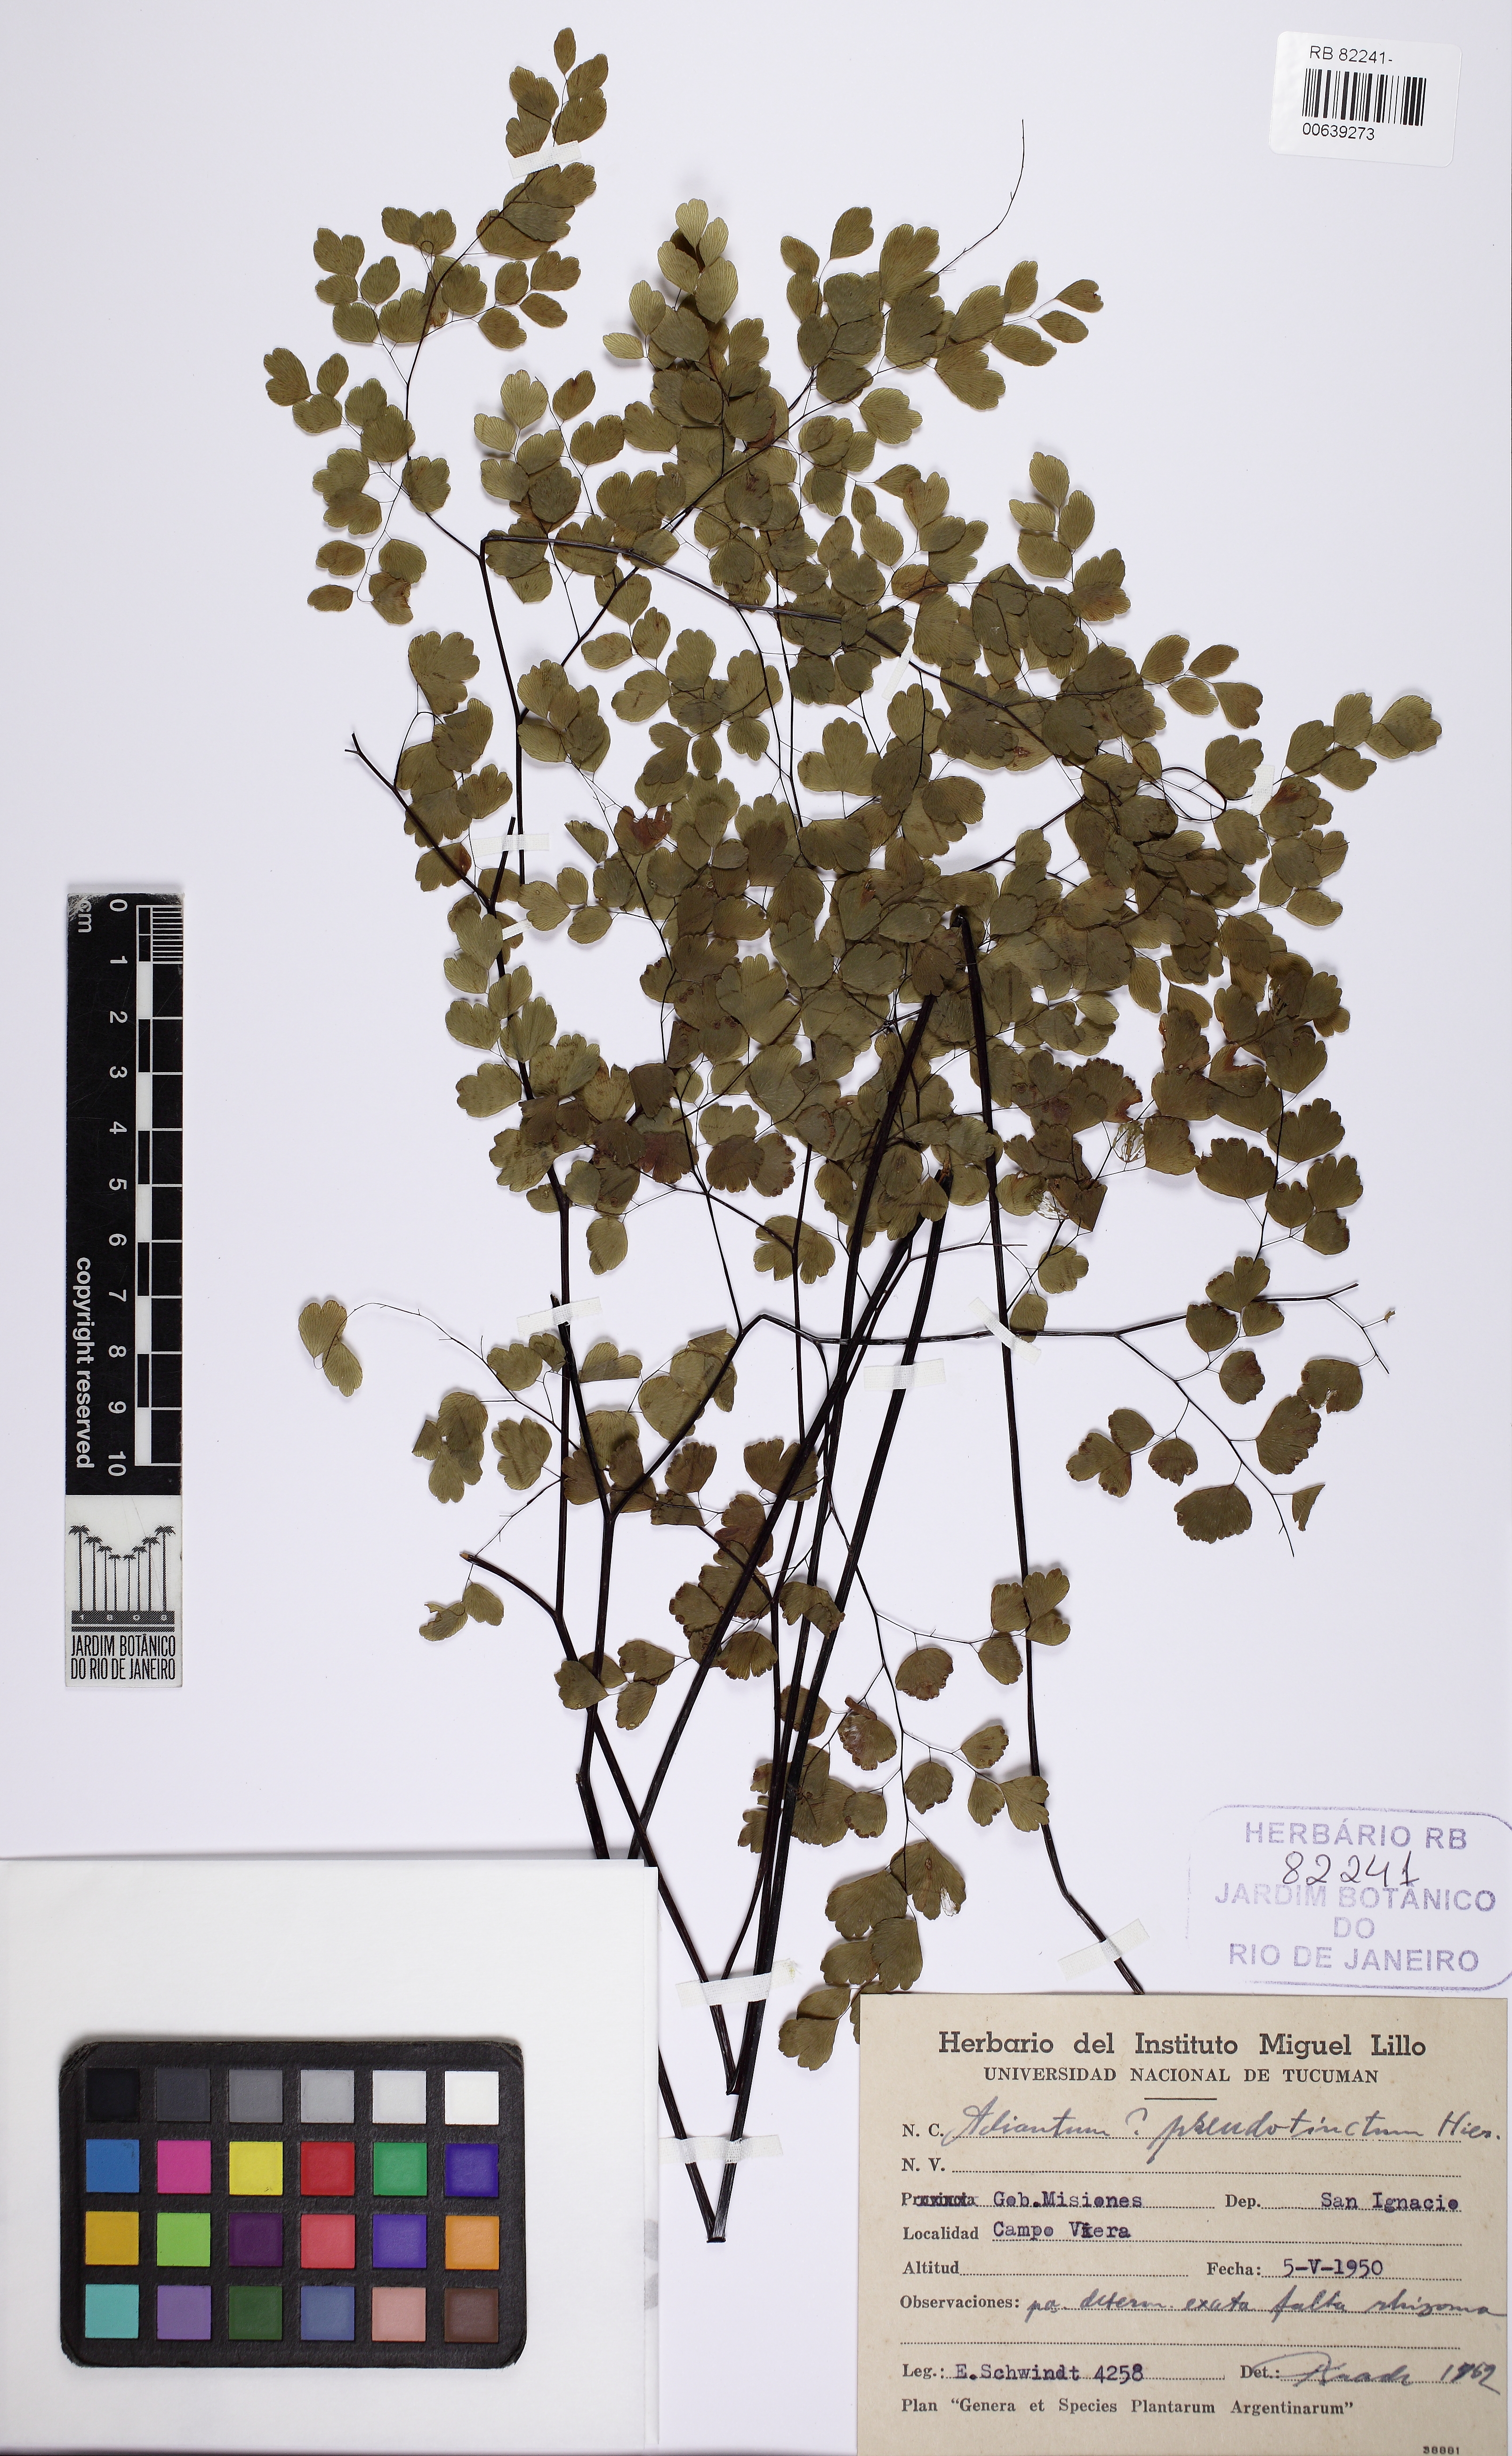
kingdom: Plantae
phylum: Tracheophyta
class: Polypodiopsida
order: Polypodiales
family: Pteridaceae
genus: Adiantum
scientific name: Adiantum pseudotinctum
